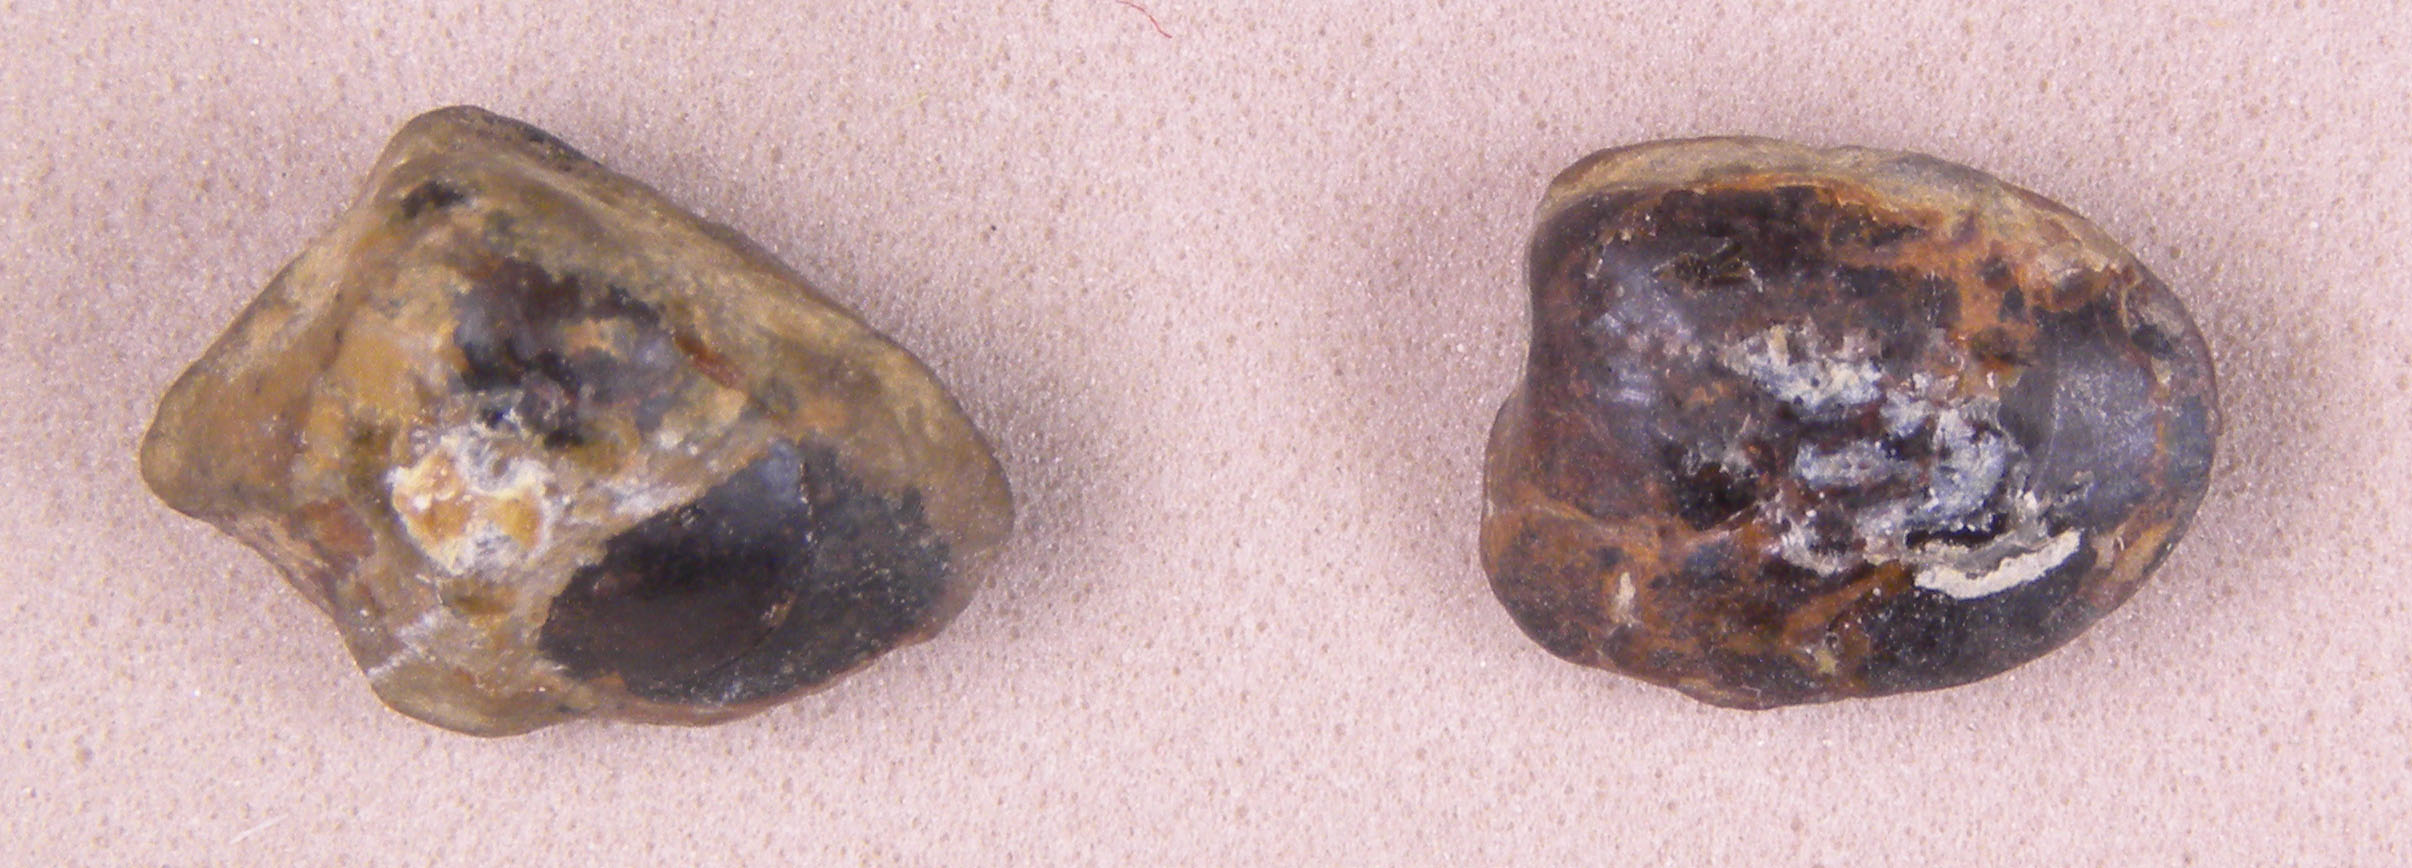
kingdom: Animalia
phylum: Mollusca
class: Bivalvia
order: Nuculida
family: Nuculidae
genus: Palaeonucula
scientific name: Palaeonucula hammeri
